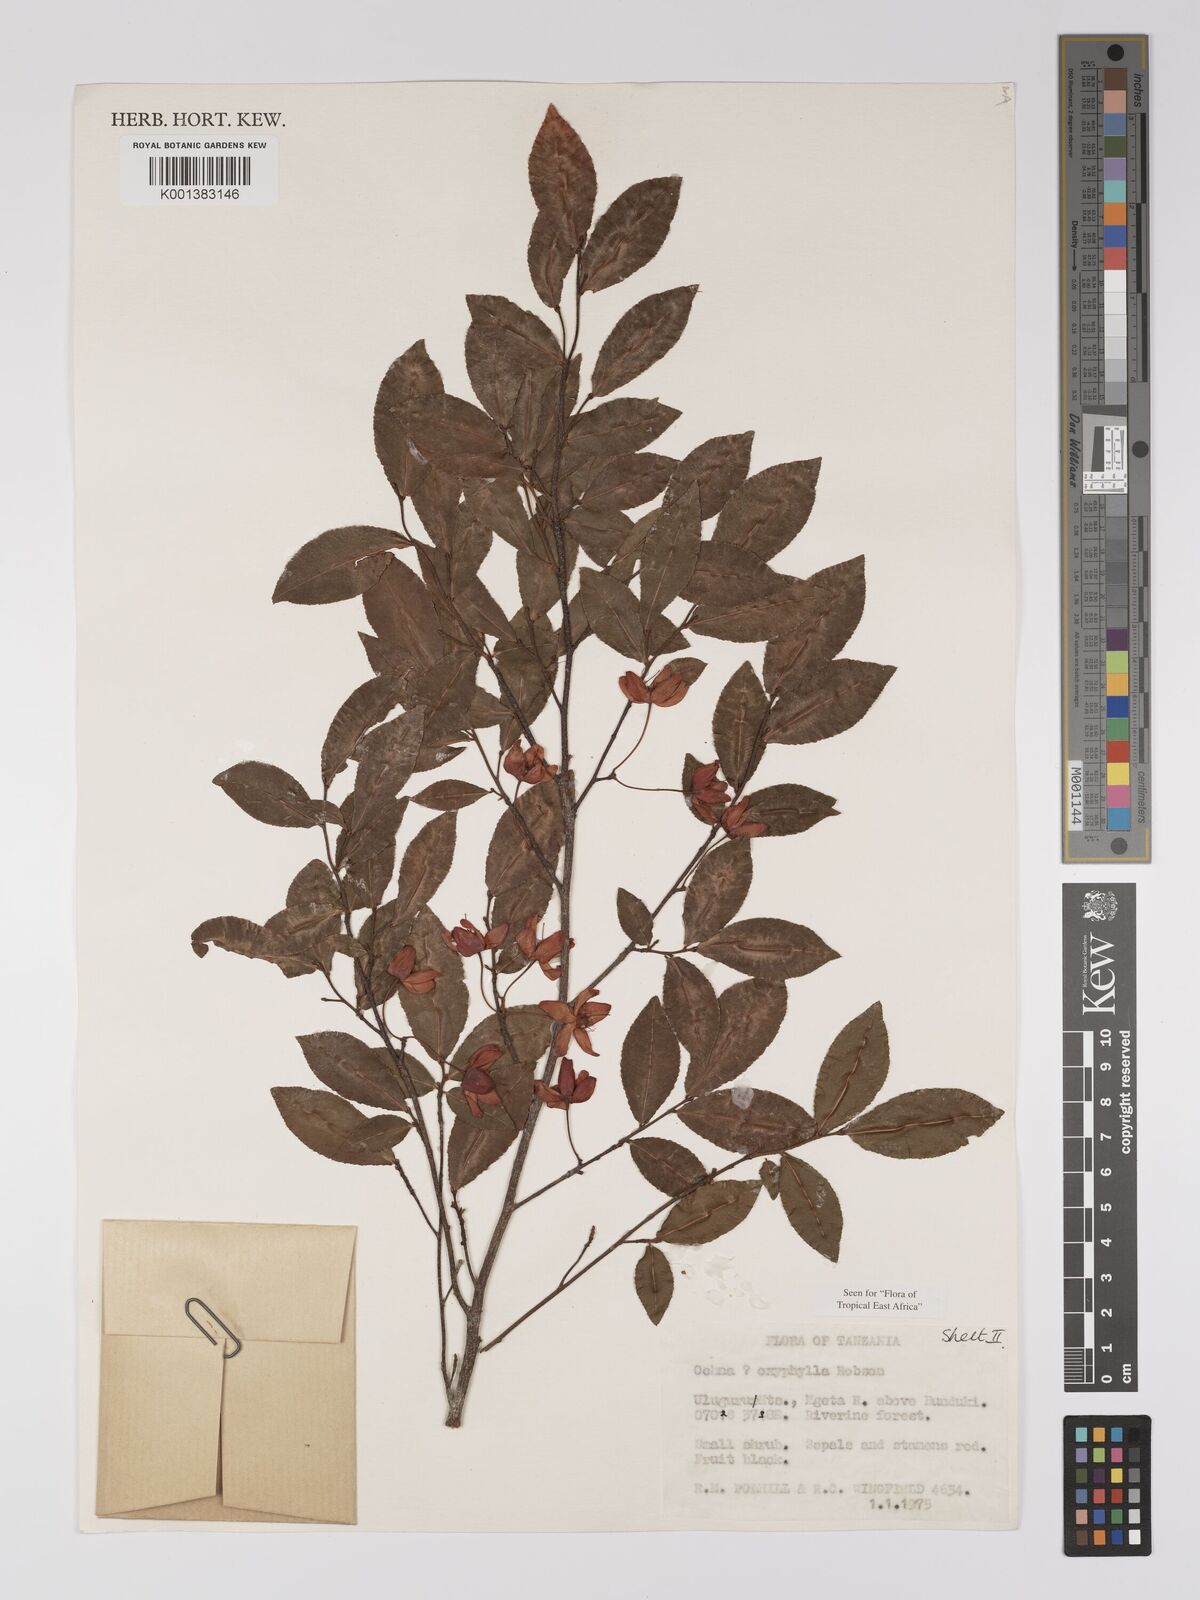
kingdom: Plantae
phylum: Tracheophyta
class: Magnoliopsida
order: Malpighiales
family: Ochnaceae
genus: Ochna
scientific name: Ochna oxyphylla
